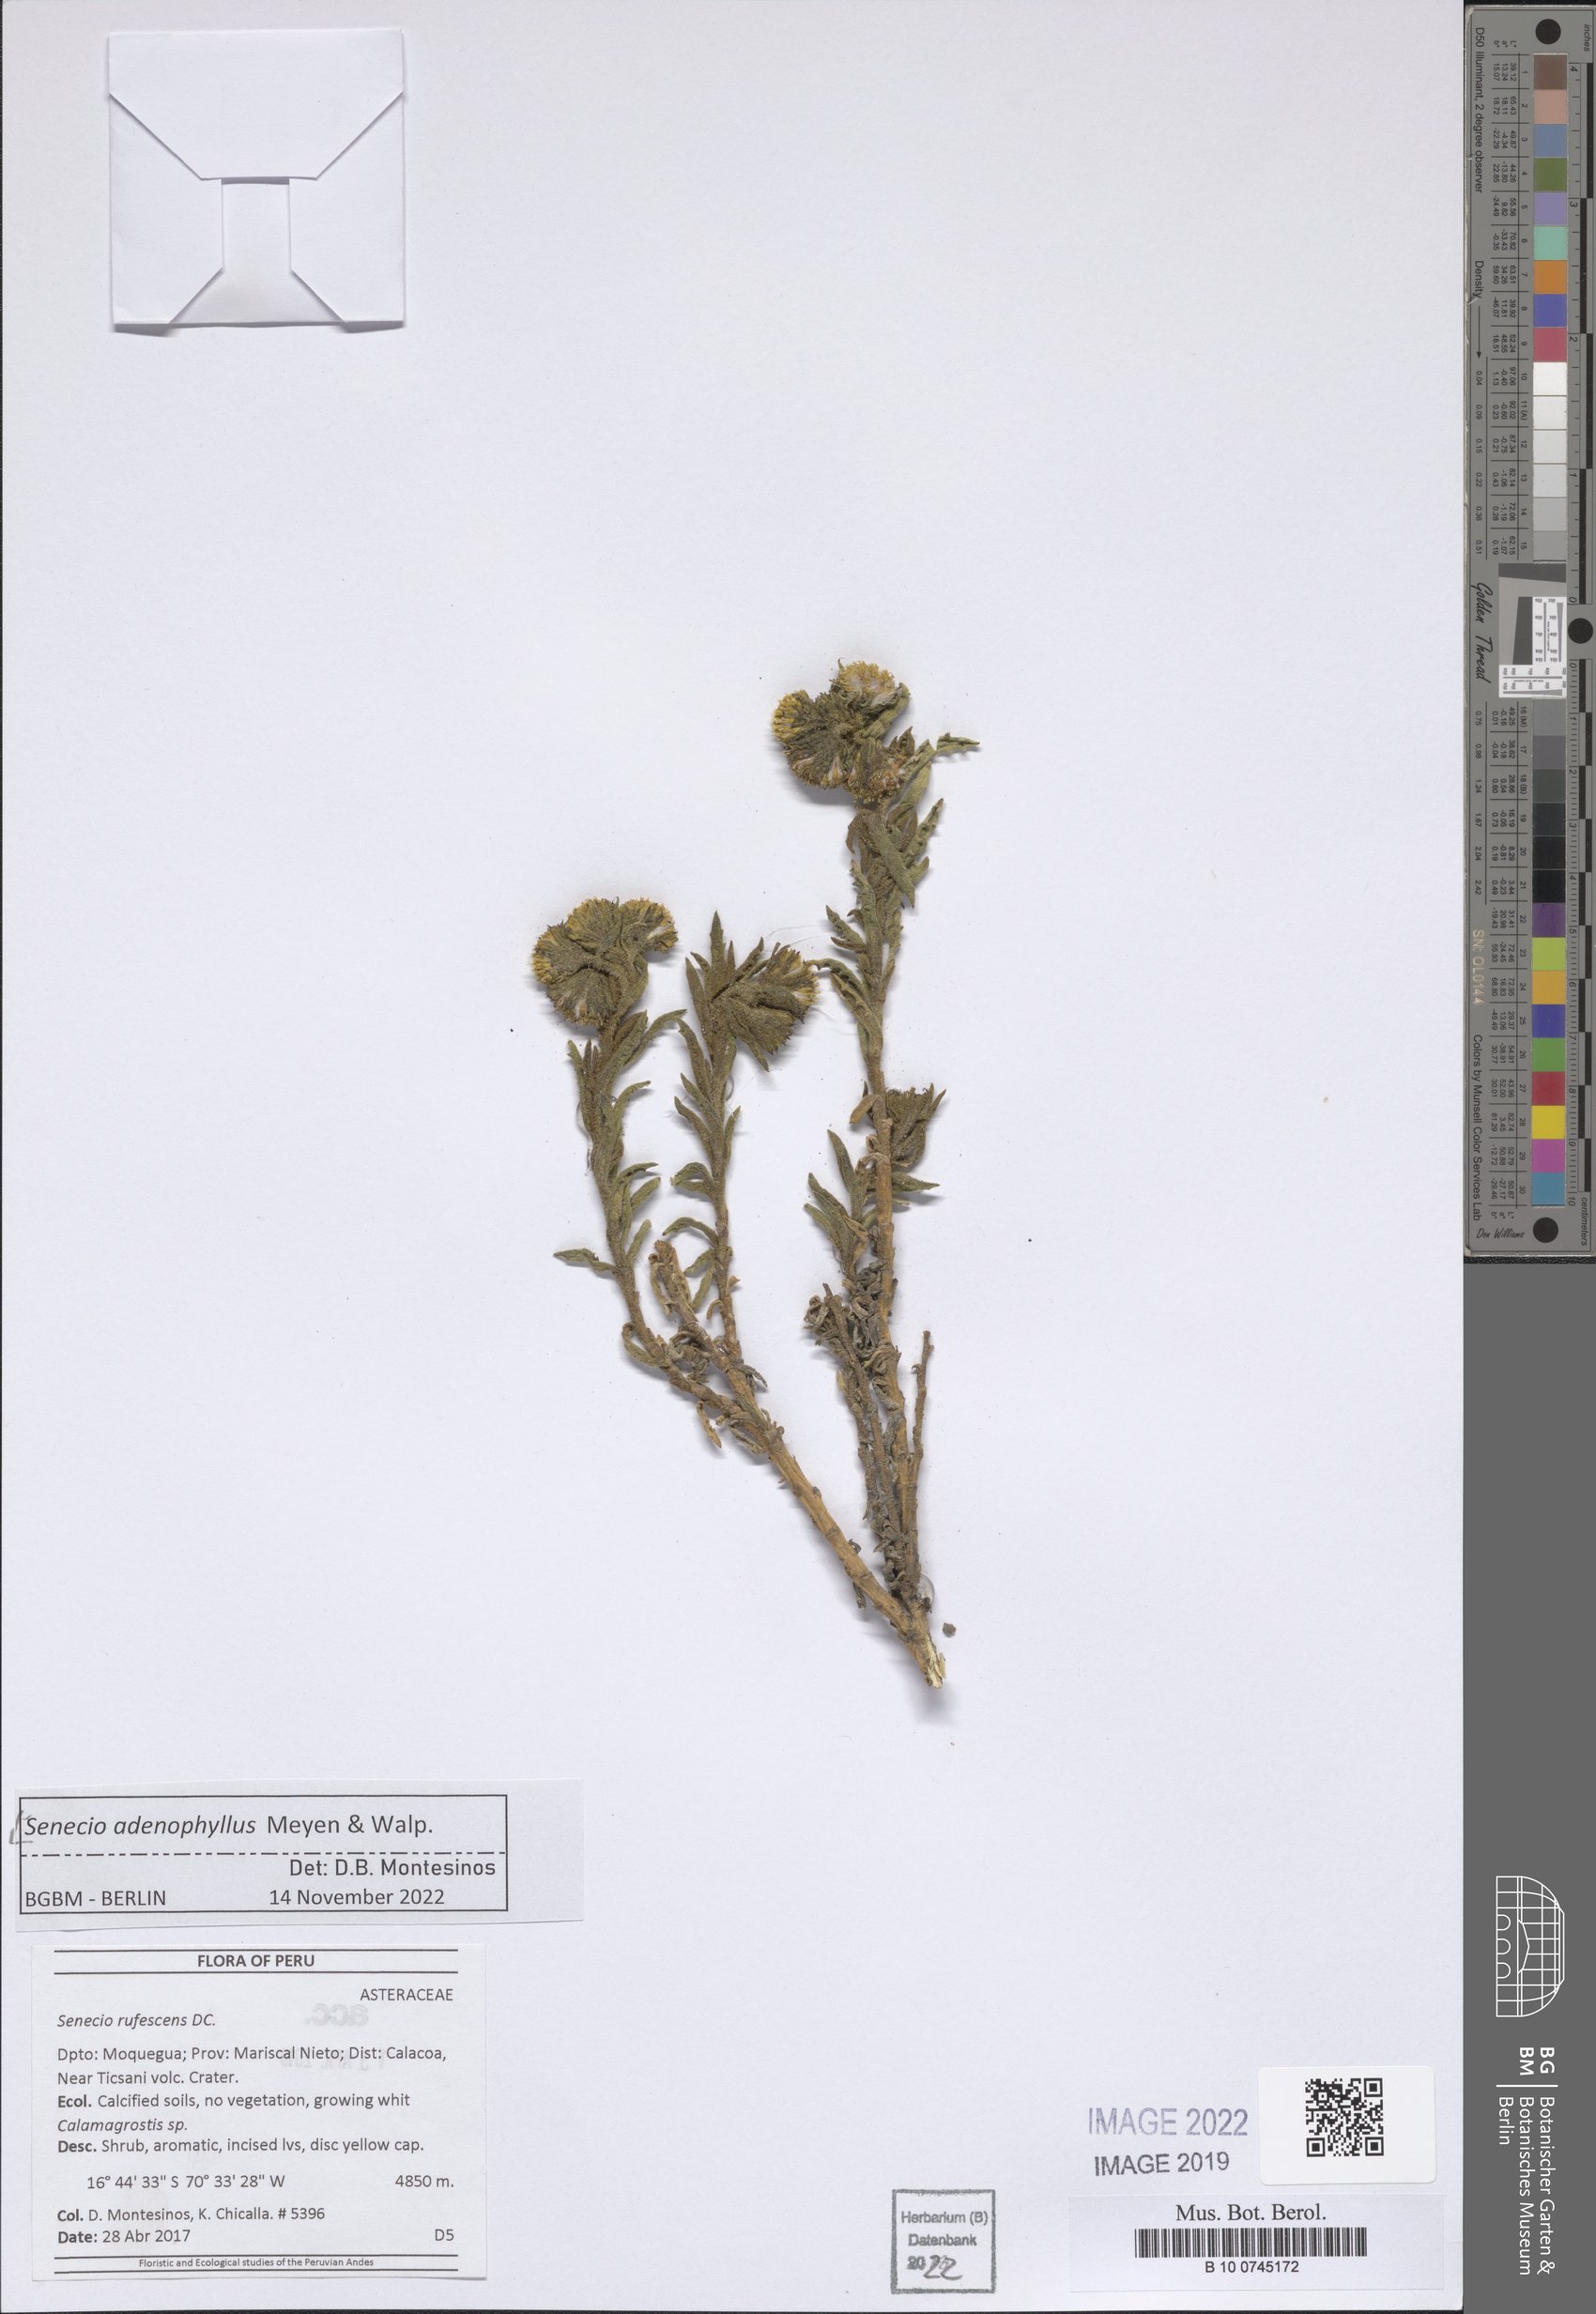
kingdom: Plantae
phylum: Tracheophyta
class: Magnoliopsida
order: Asterales
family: Asteraceae
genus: Senecio
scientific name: Senecio adenophyllus
